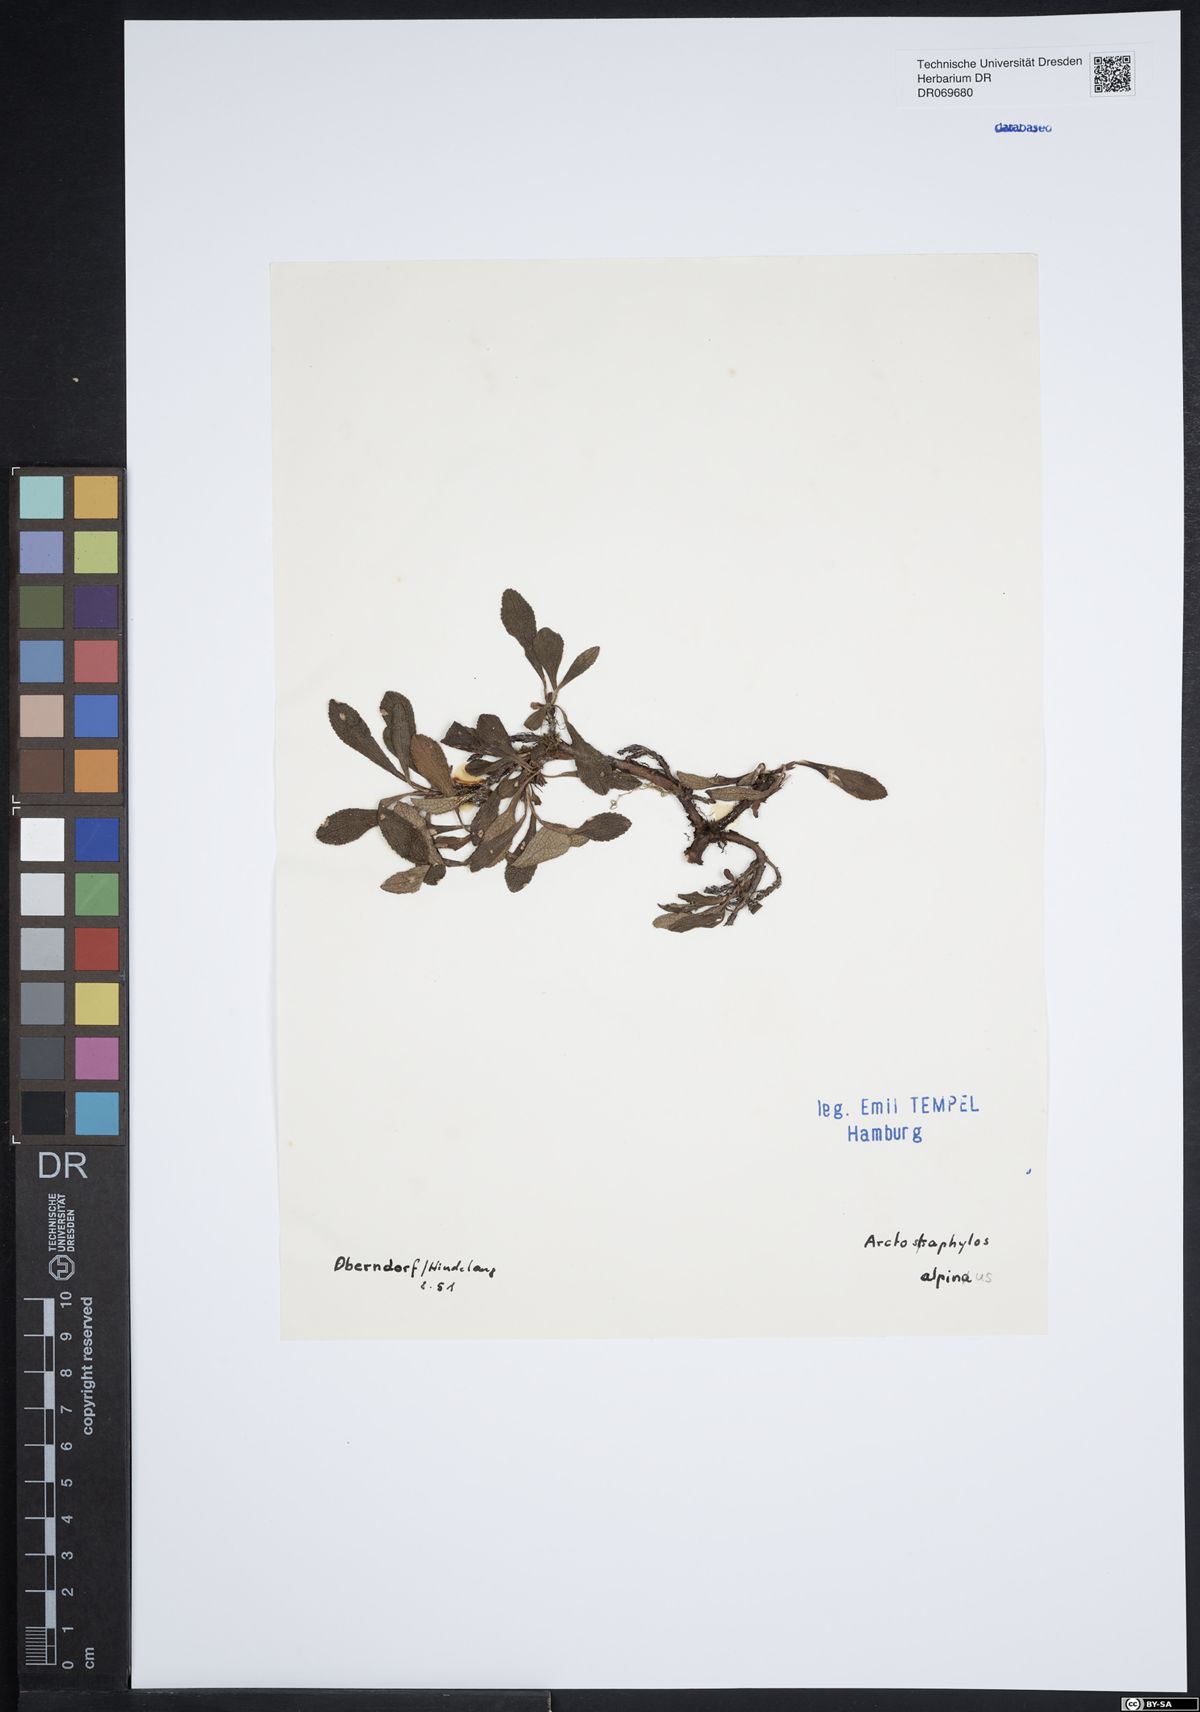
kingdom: Plantae
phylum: Tracheophyta
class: Magnoliopsida
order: Ericales
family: Ericaceae
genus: Arctostaphylos
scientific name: Arctostaphylos alpinus
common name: Alpine bearberry
